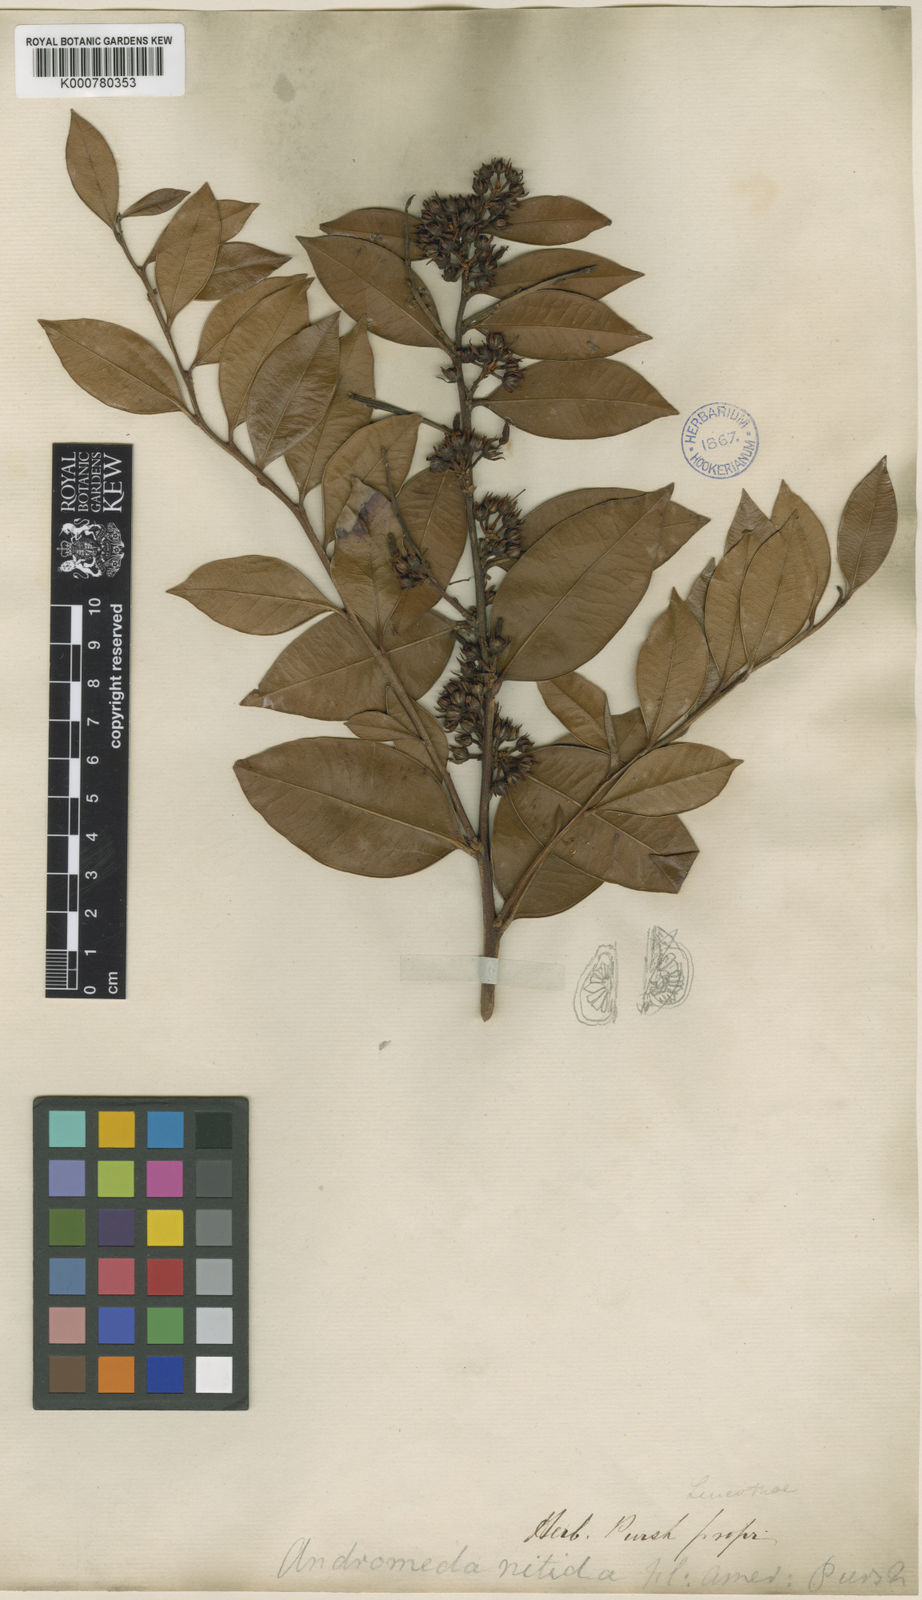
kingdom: Plantae
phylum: Tracheophyta
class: Magnoliopsida
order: Ericales
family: Ericaceae
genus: Lyonia
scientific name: Lyonia lucida
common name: Fetterbush
